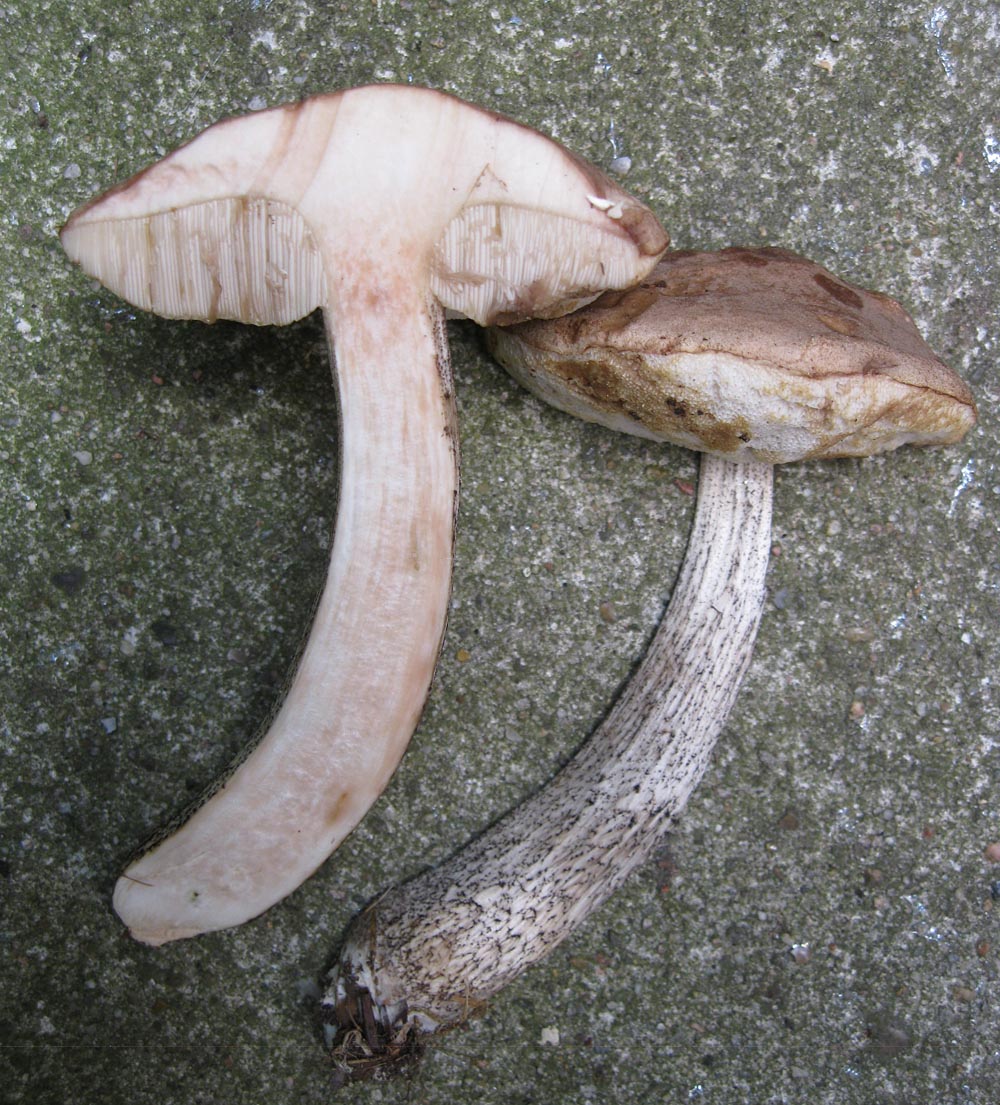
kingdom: Fungi
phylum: Basidiomycota
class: Agaricomycetes
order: Boletales
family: Boletaceae
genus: Leccinum
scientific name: Leccinum scabrum
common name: hvid skælrørhat
